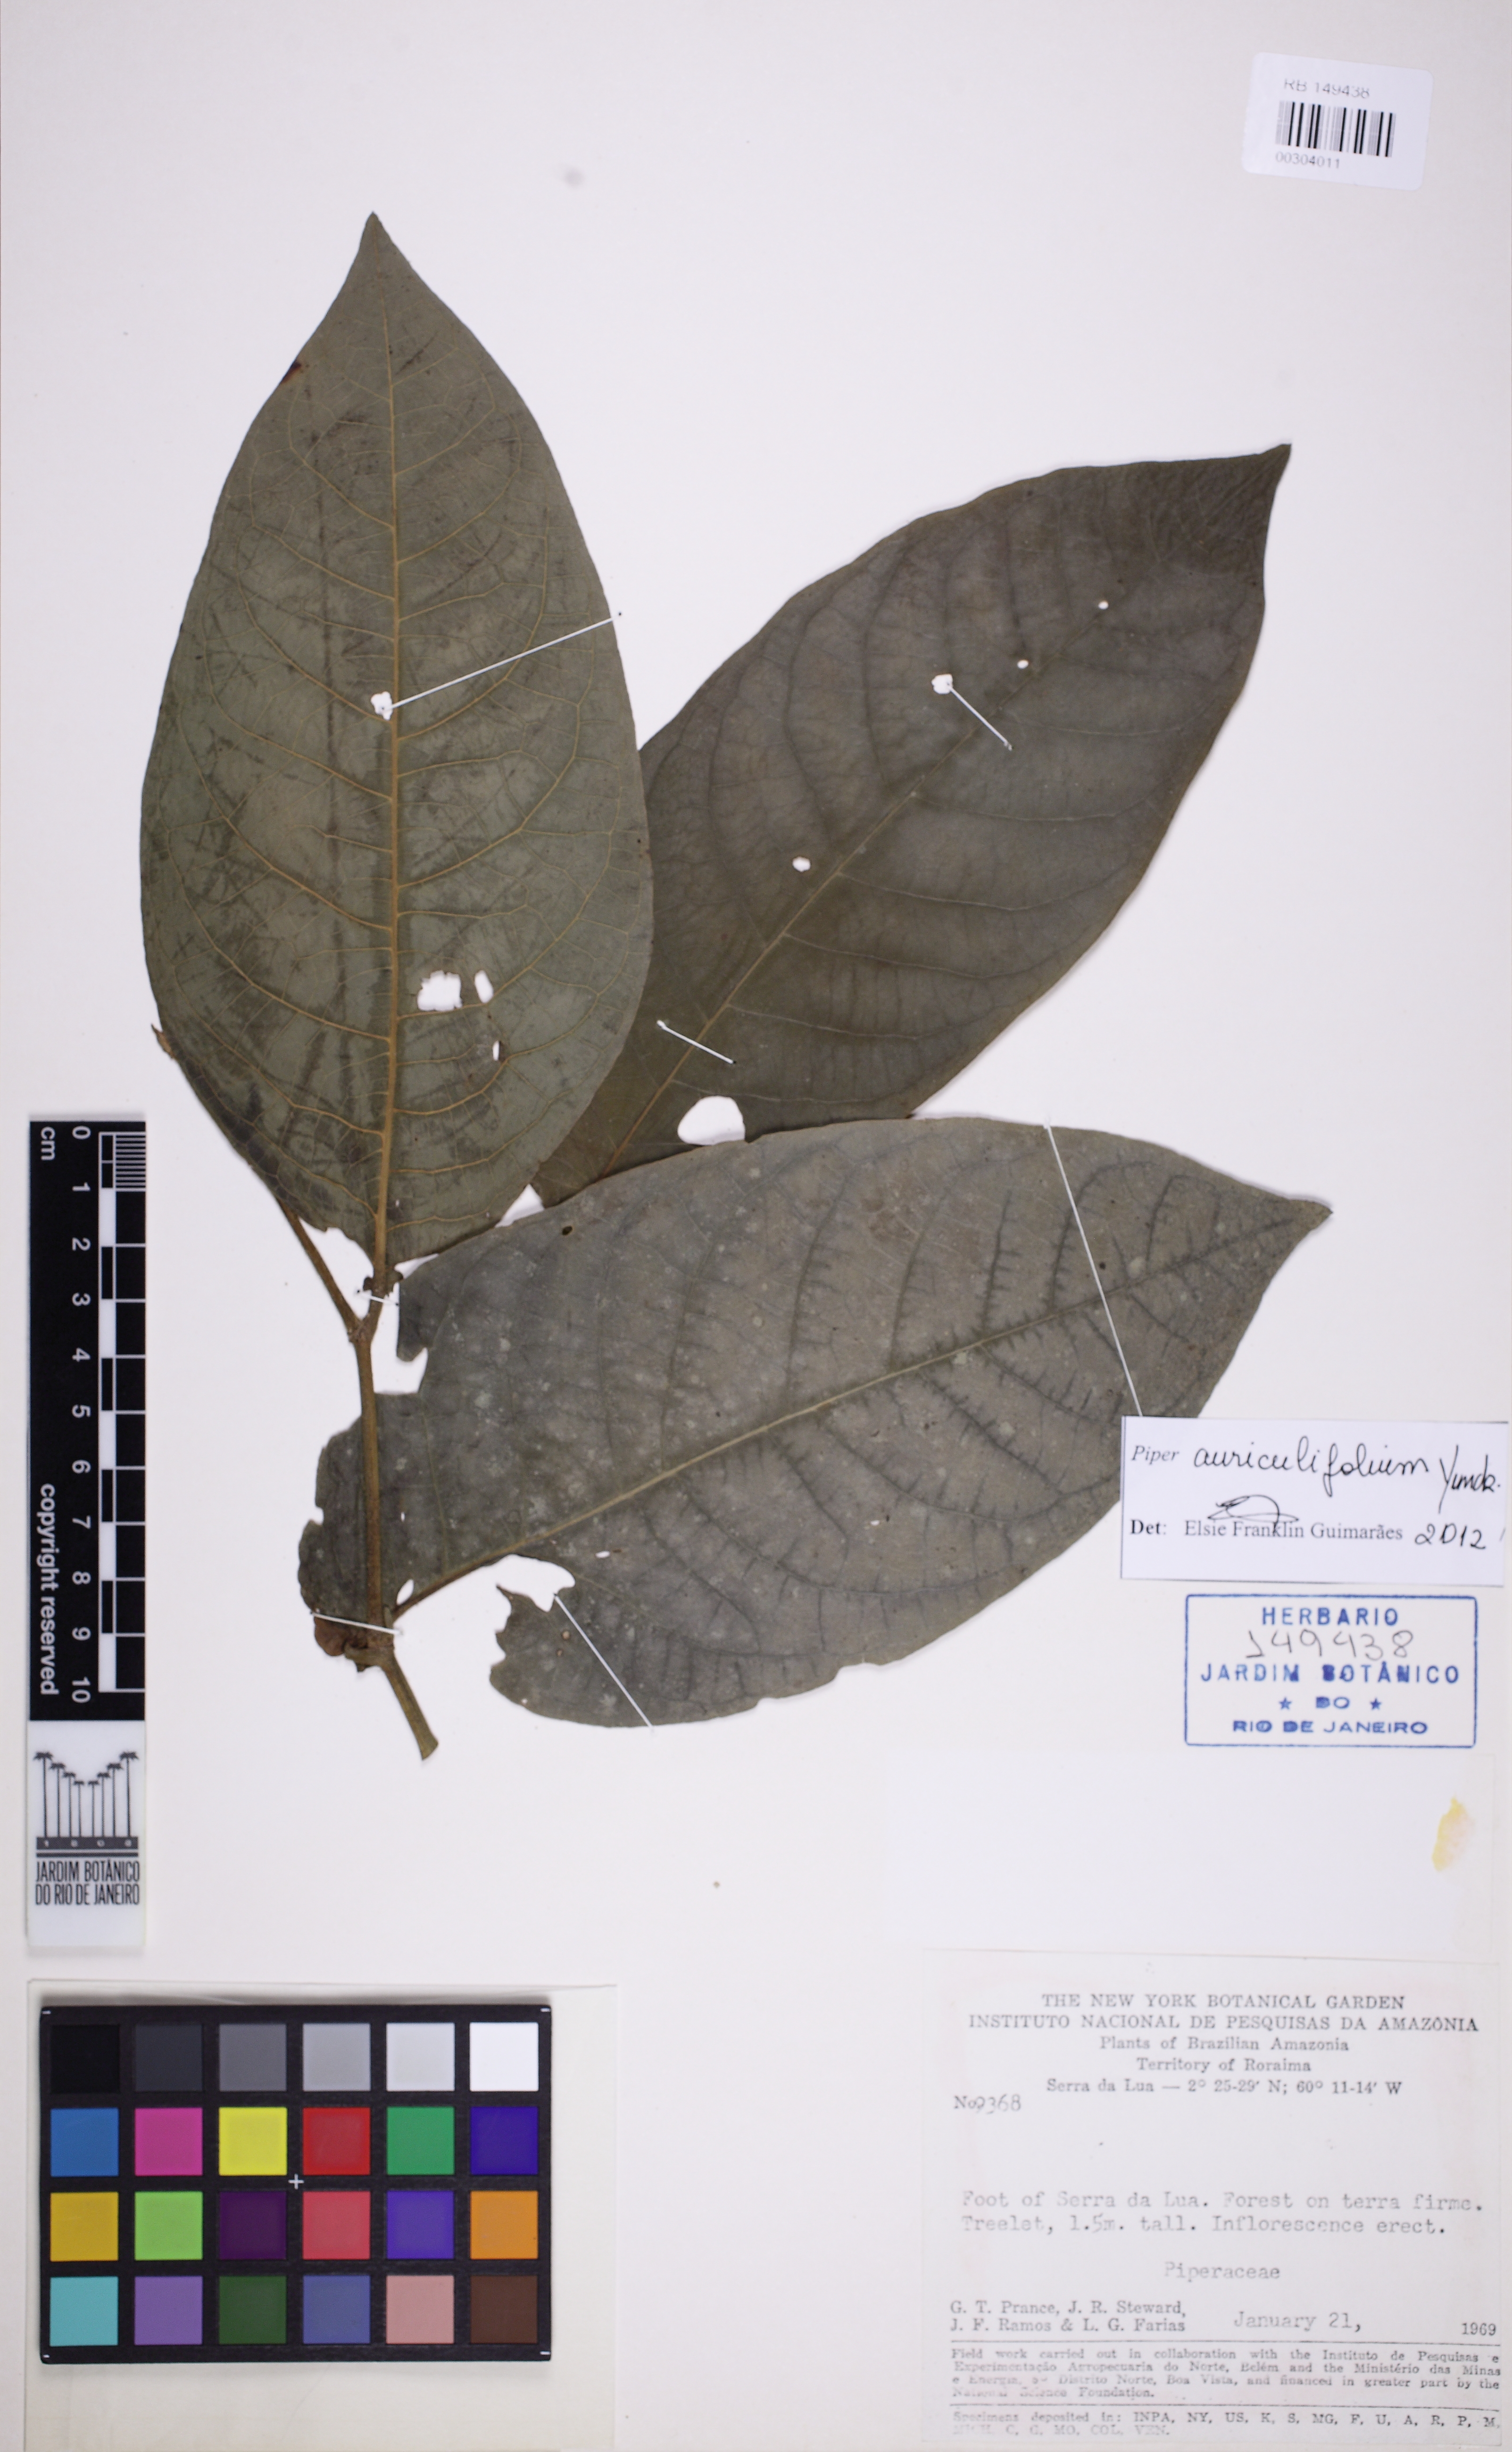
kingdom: Plantae
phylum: Tracheophyta
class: Magnoliopsida
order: Piperales
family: Piperaceae
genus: Piper
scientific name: Piper auriculilaminum
